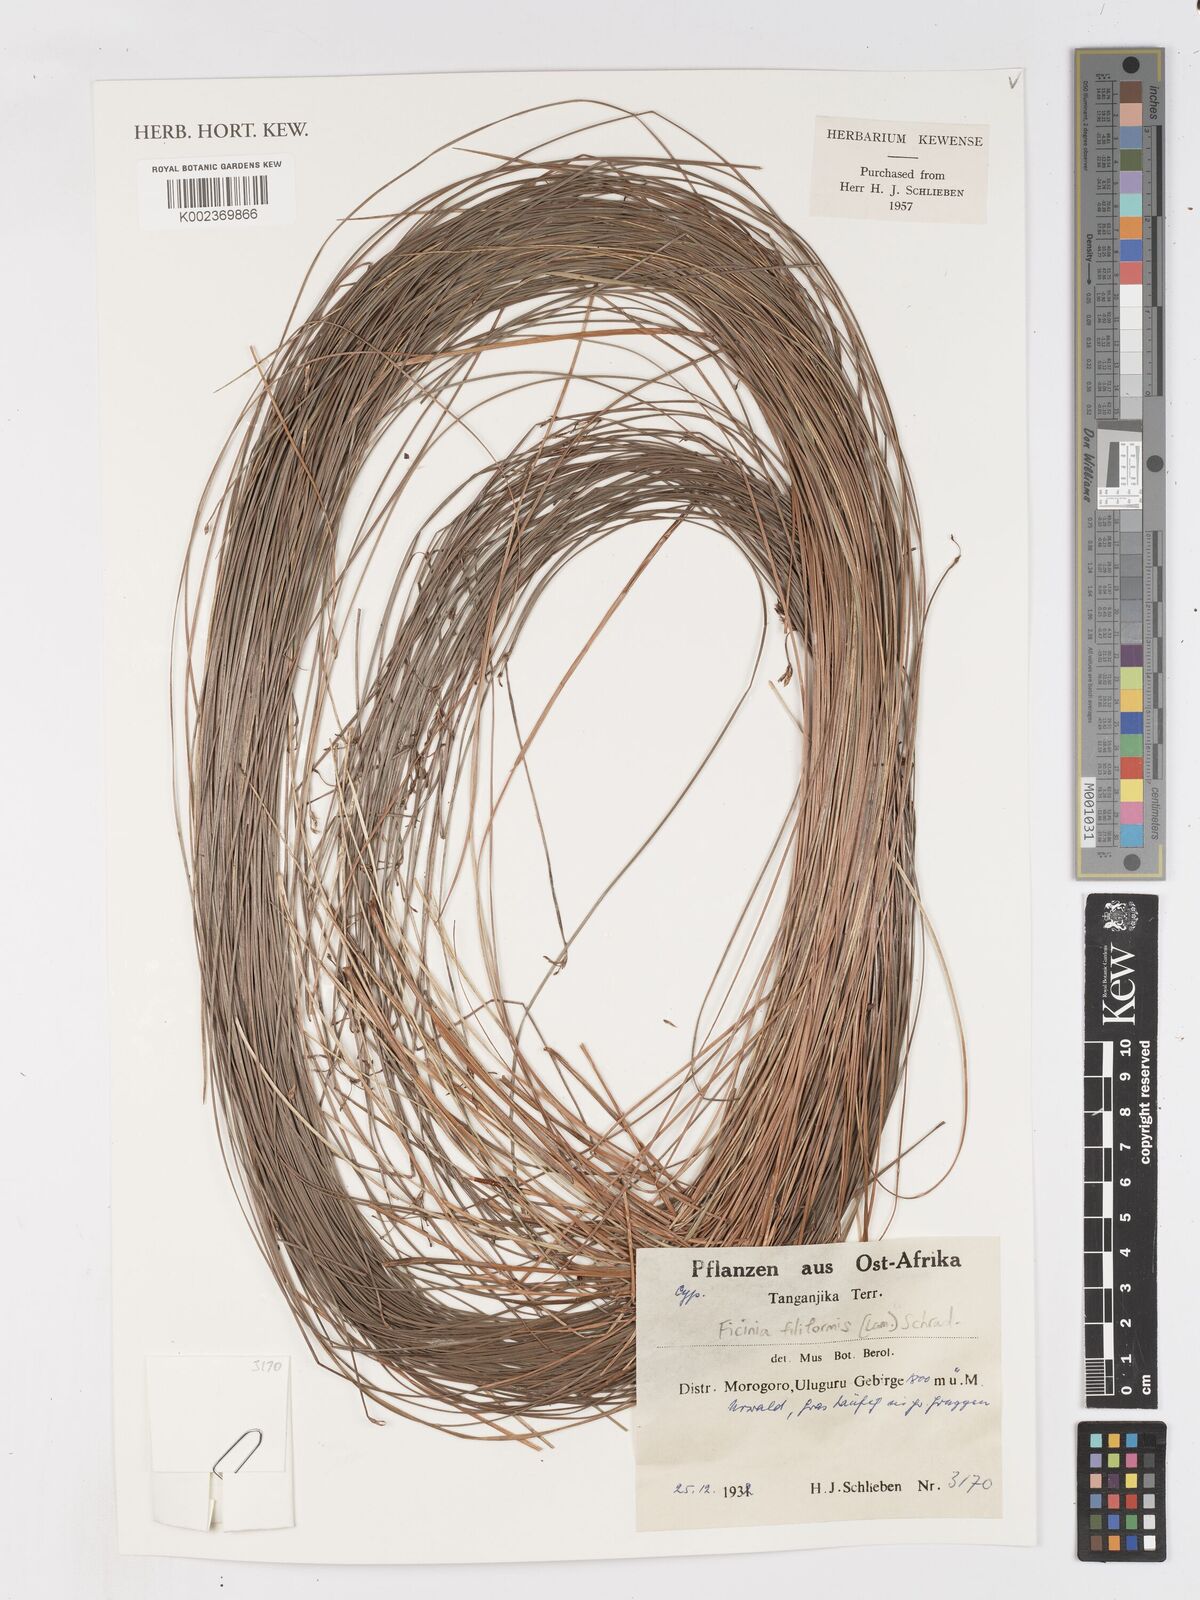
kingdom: Plantae
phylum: Tracheophyta
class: Liliopsida
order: Poales
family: Cyperaceae
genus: Ficinia
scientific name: Ficinia filiformis
